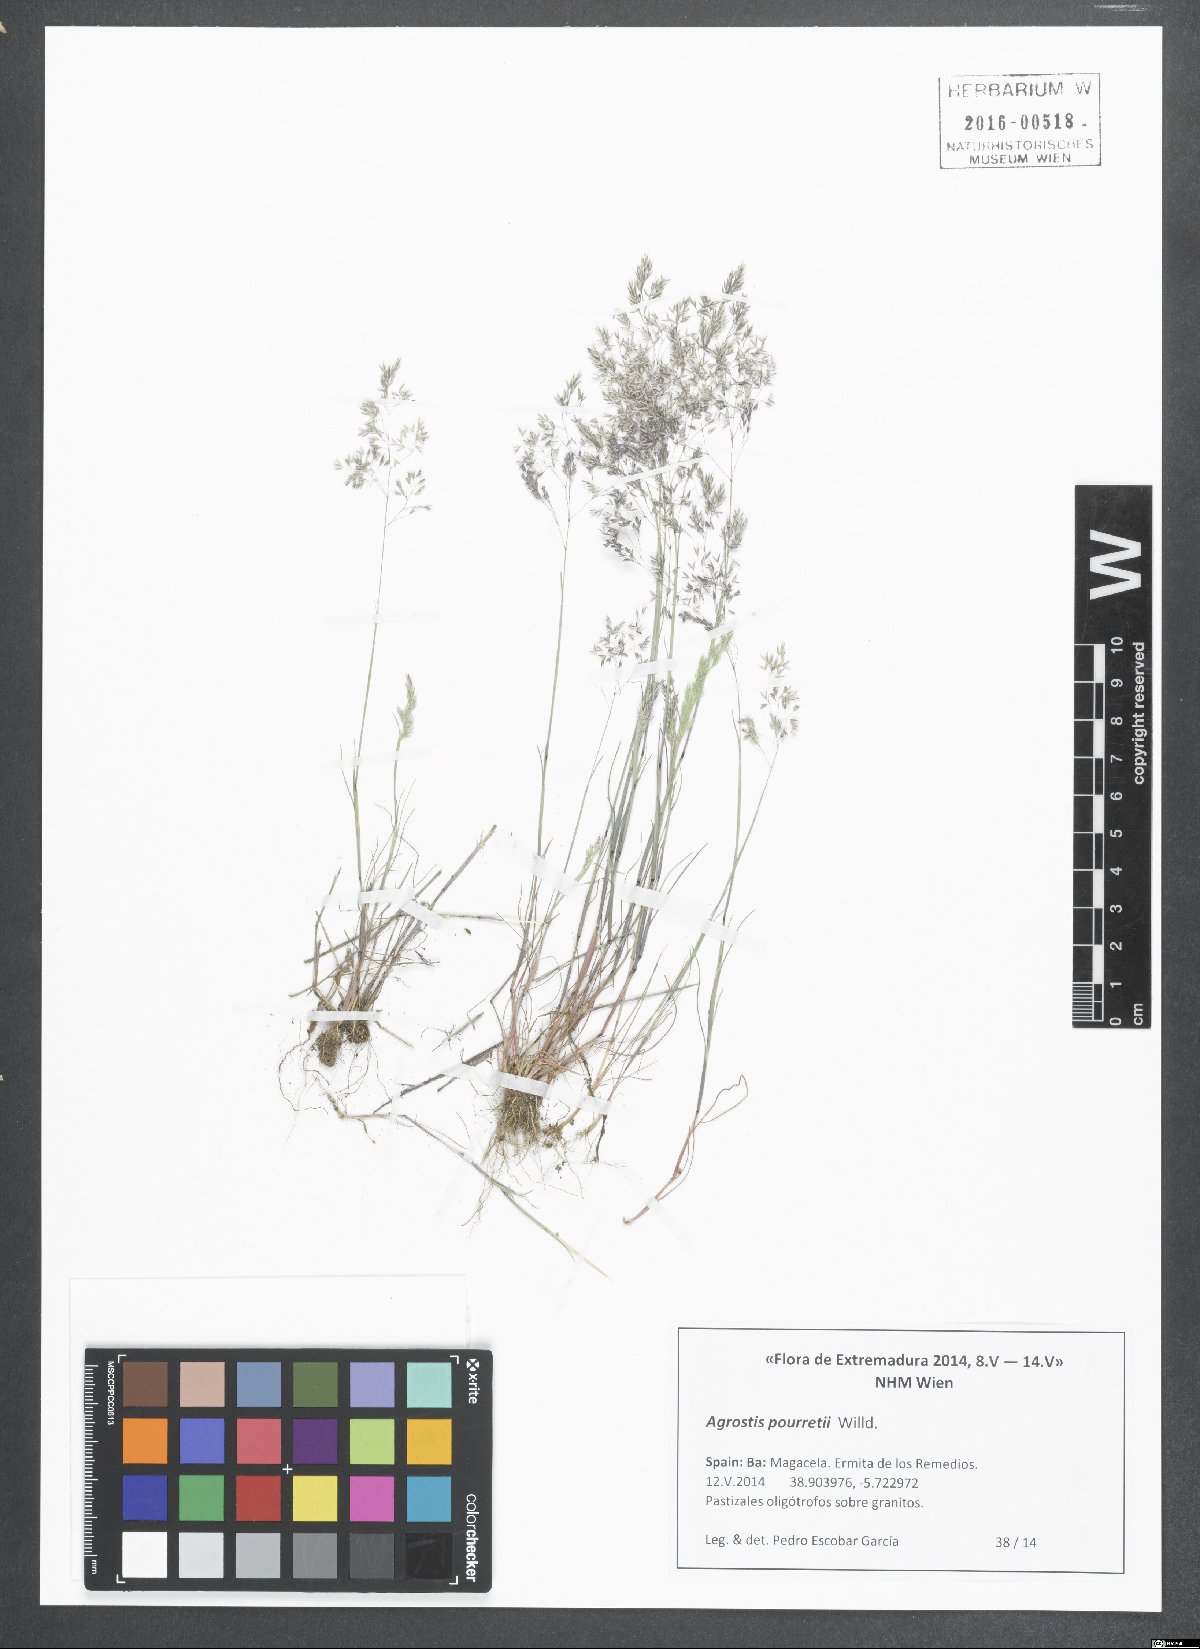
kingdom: Plantae
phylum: Tracheophyta
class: Liliopsida
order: Poales
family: Poaceae
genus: Agrostis
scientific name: Agrostis pourretii
